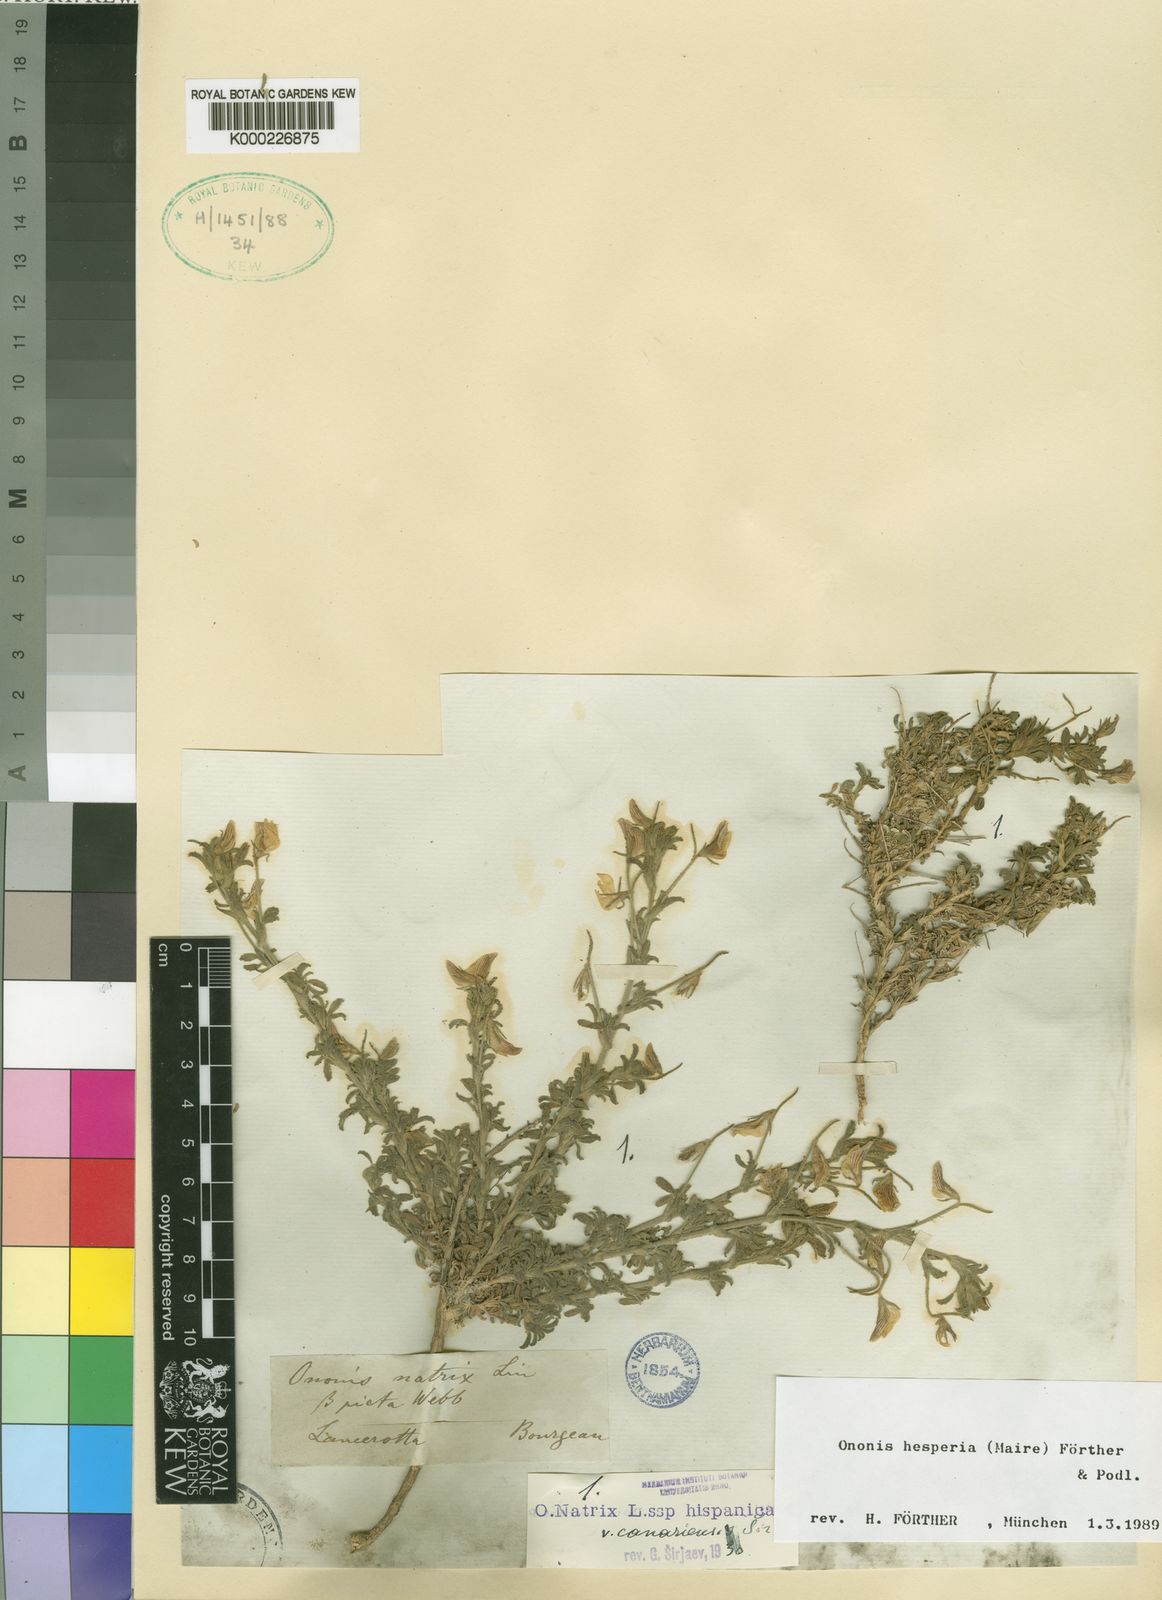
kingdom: Plantae
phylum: Tracheophyta
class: Magnoliopsida
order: Fabales
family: Fabaceae
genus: Ononis
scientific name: Ononis
